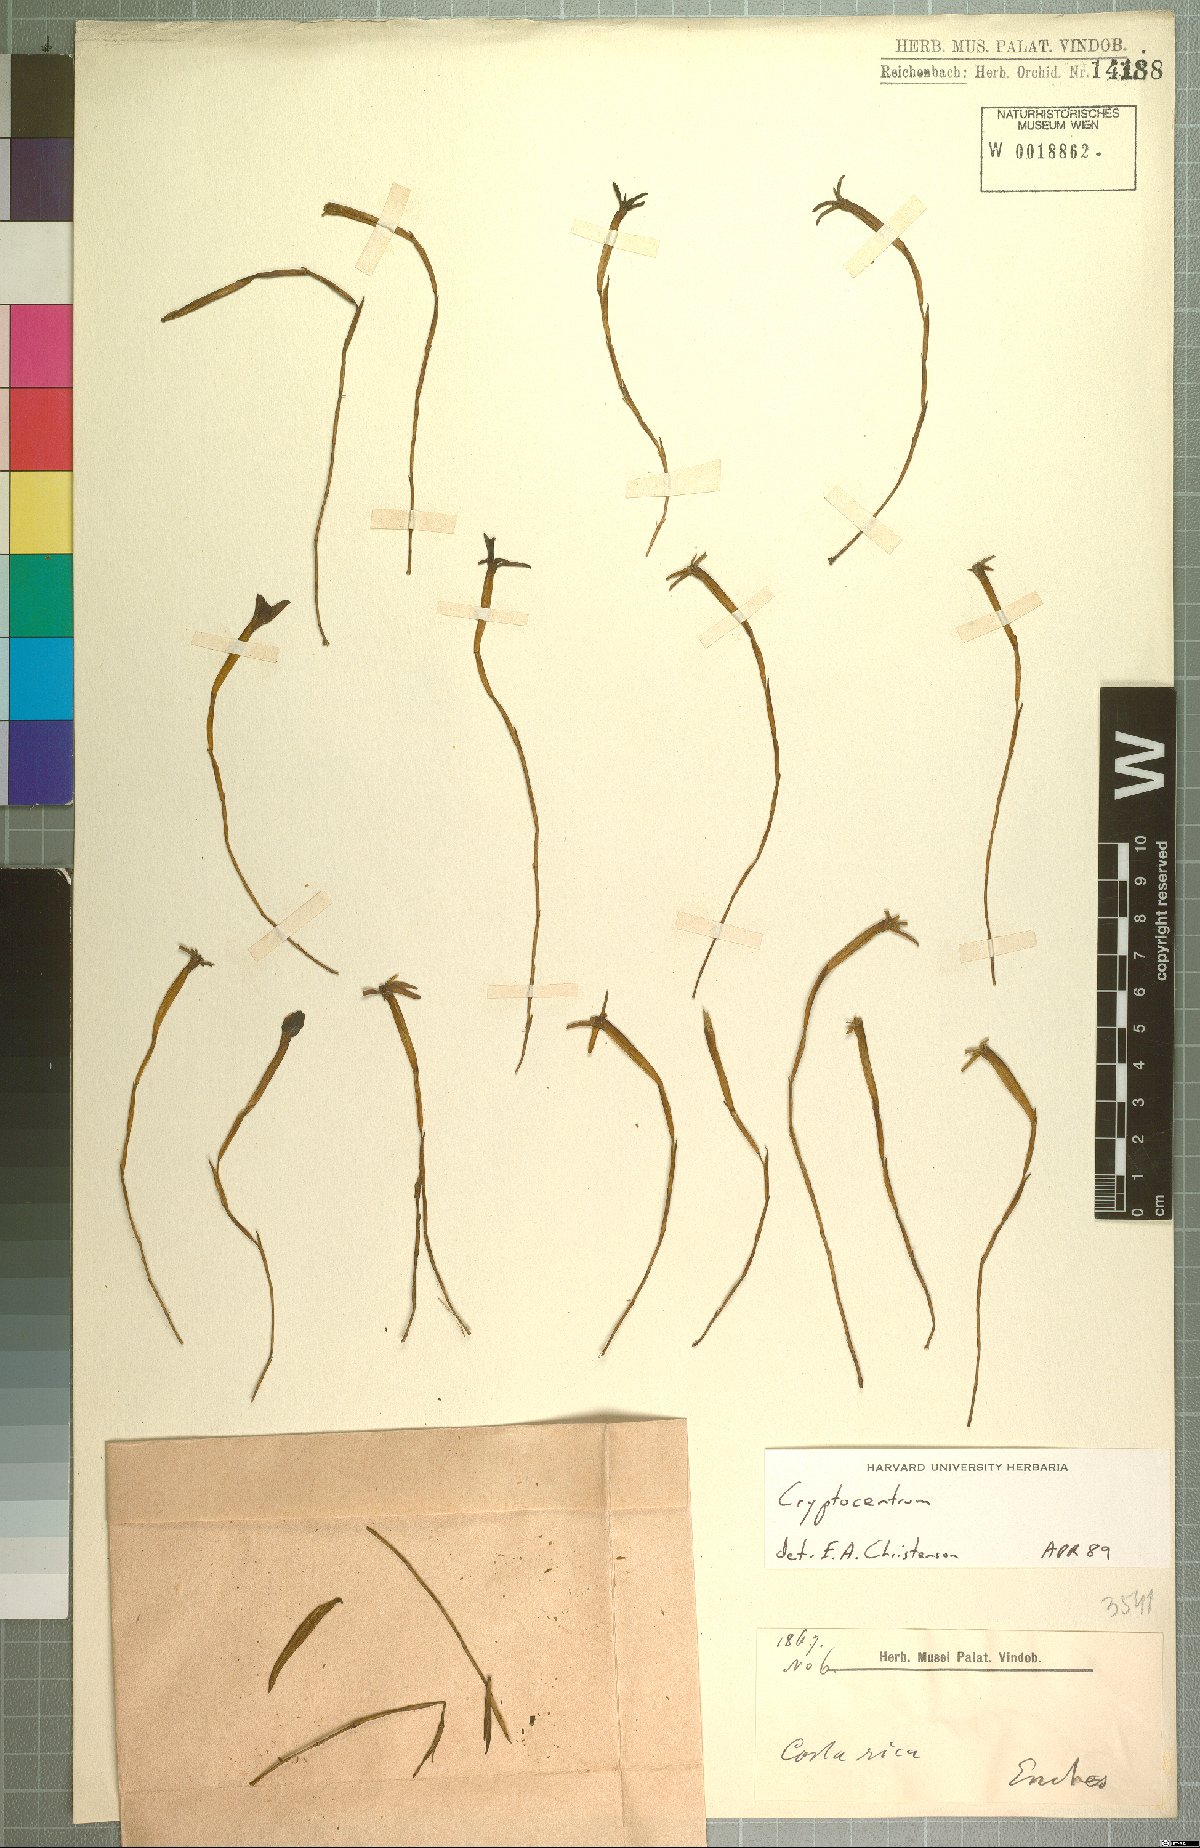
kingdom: Plantae
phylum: Tracheophyta
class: Liliopsida
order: Asparagales
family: Orchidaceae
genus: Maxillaria
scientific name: Maxillaria jacquelineana
